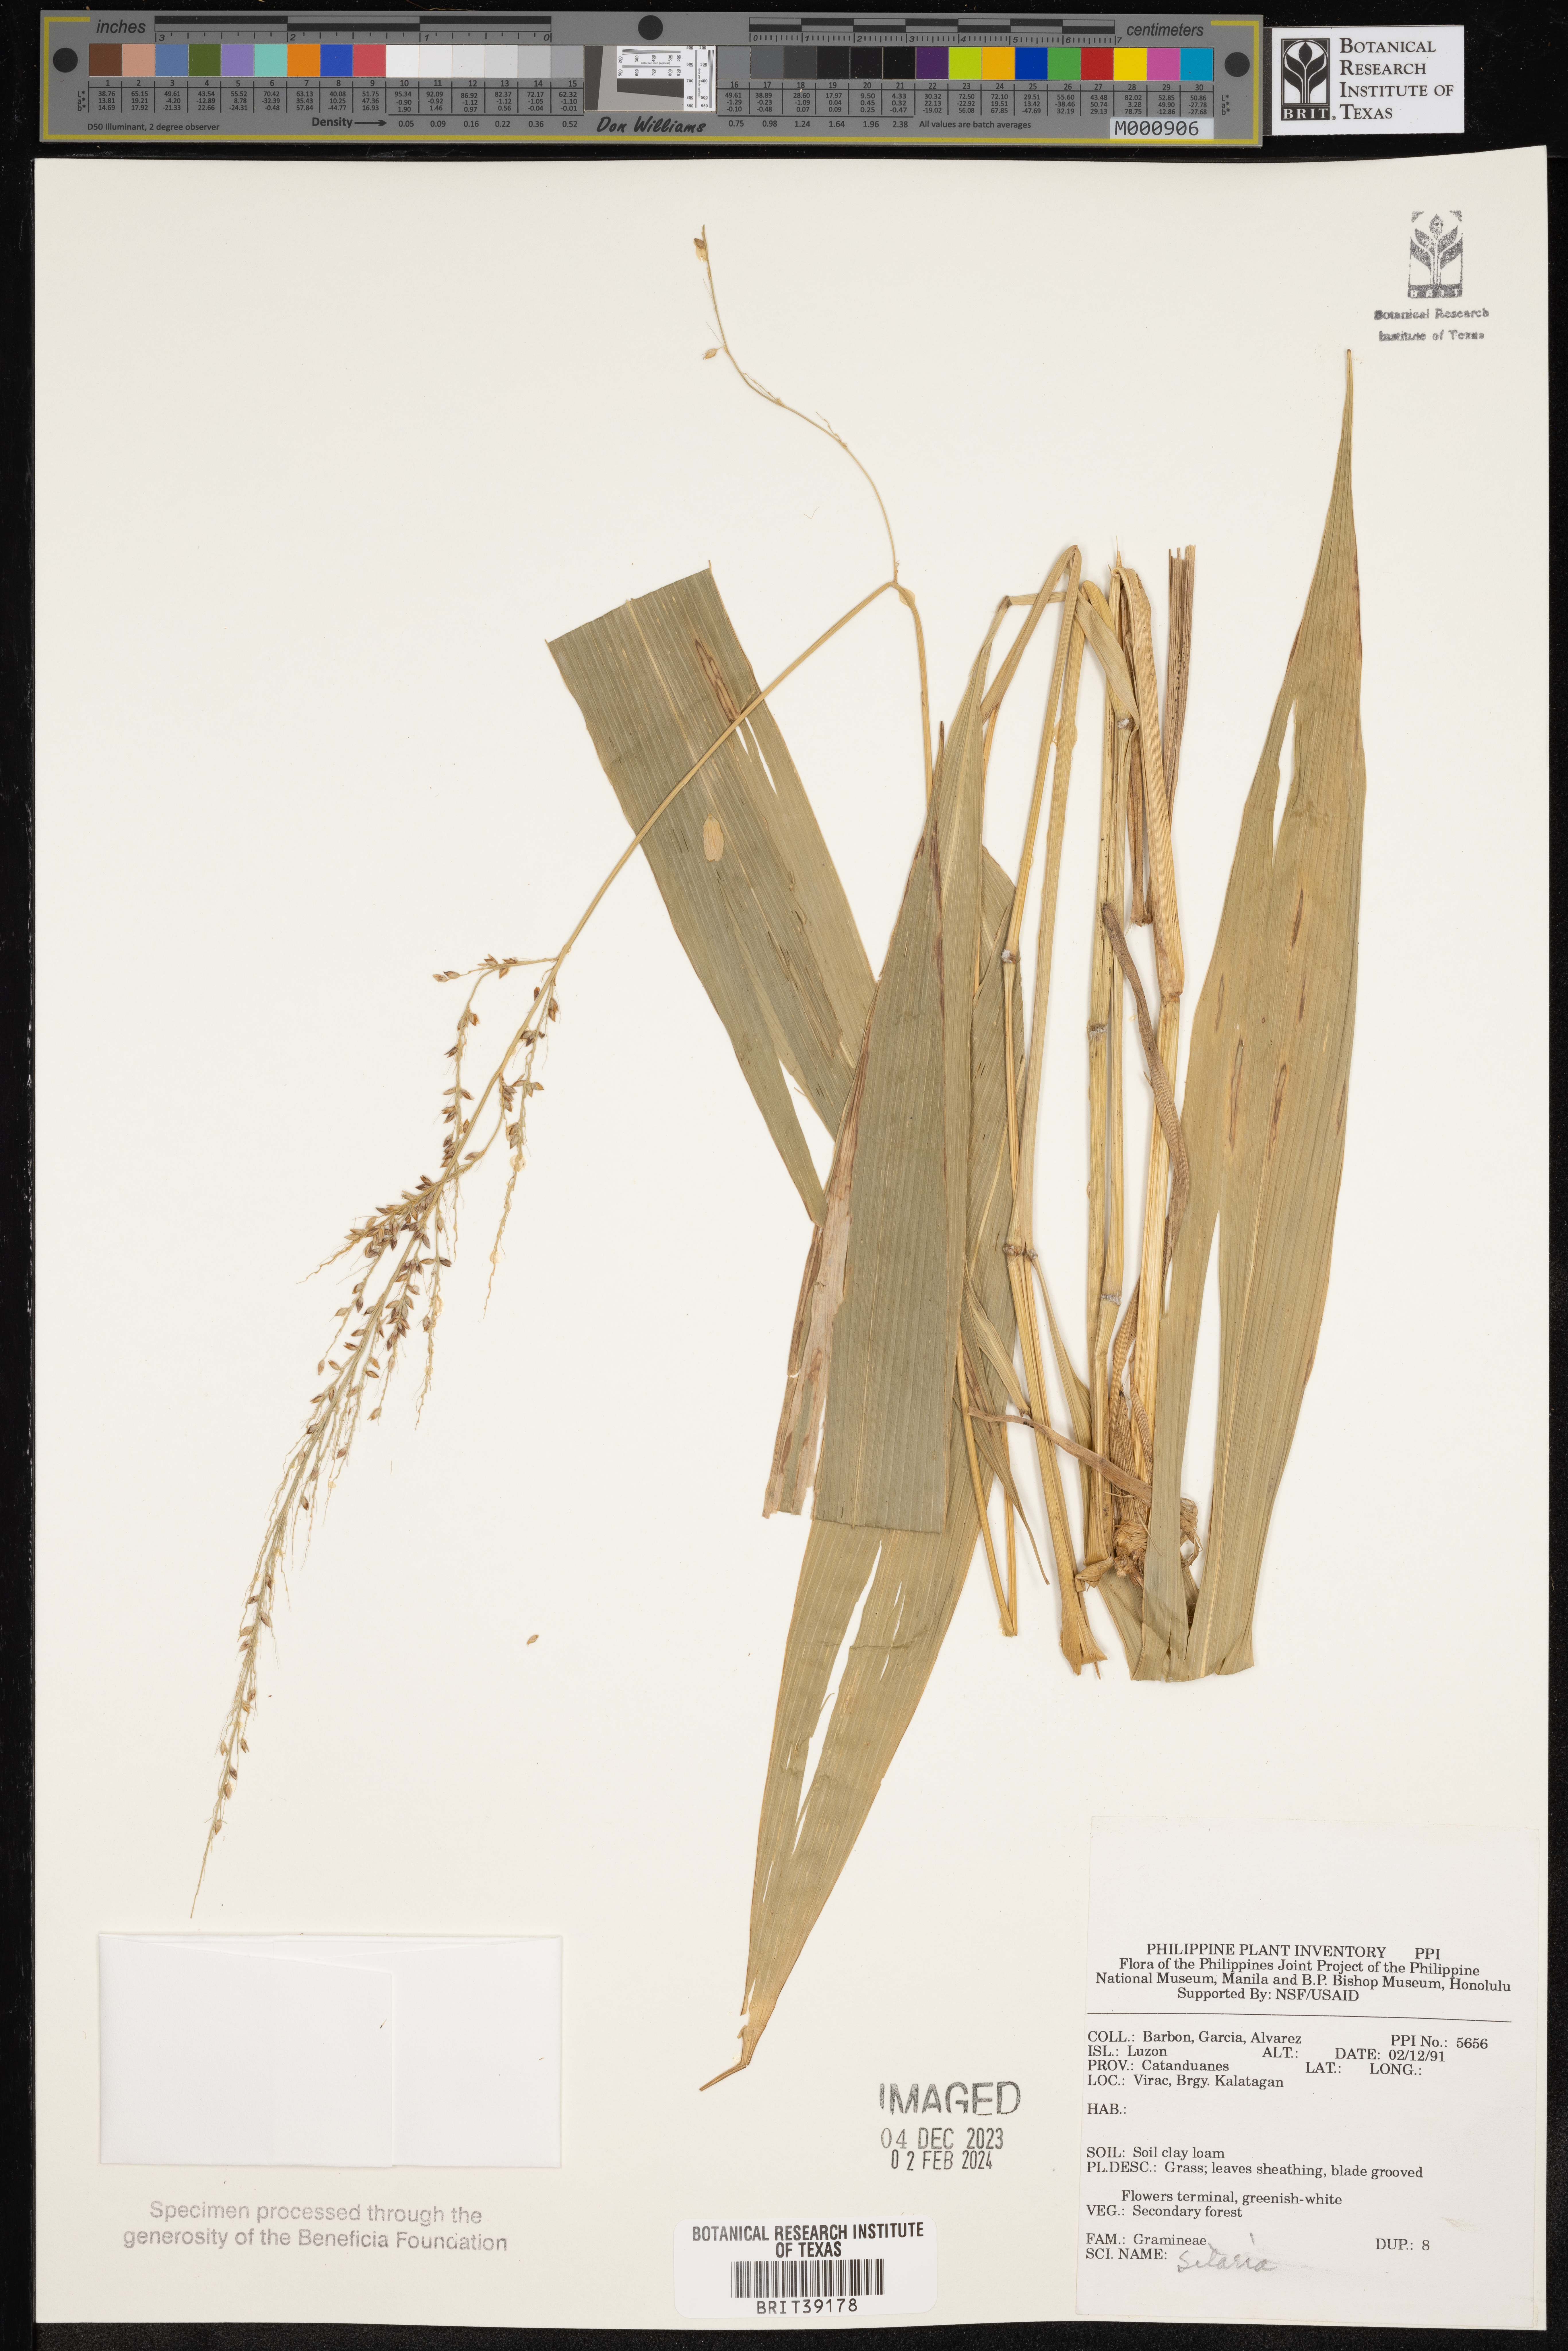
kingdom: Plantae
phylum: Tracheophyta
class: Liliopsida
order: Poales
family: Poaceae
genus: Setaria
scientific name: Setaria
